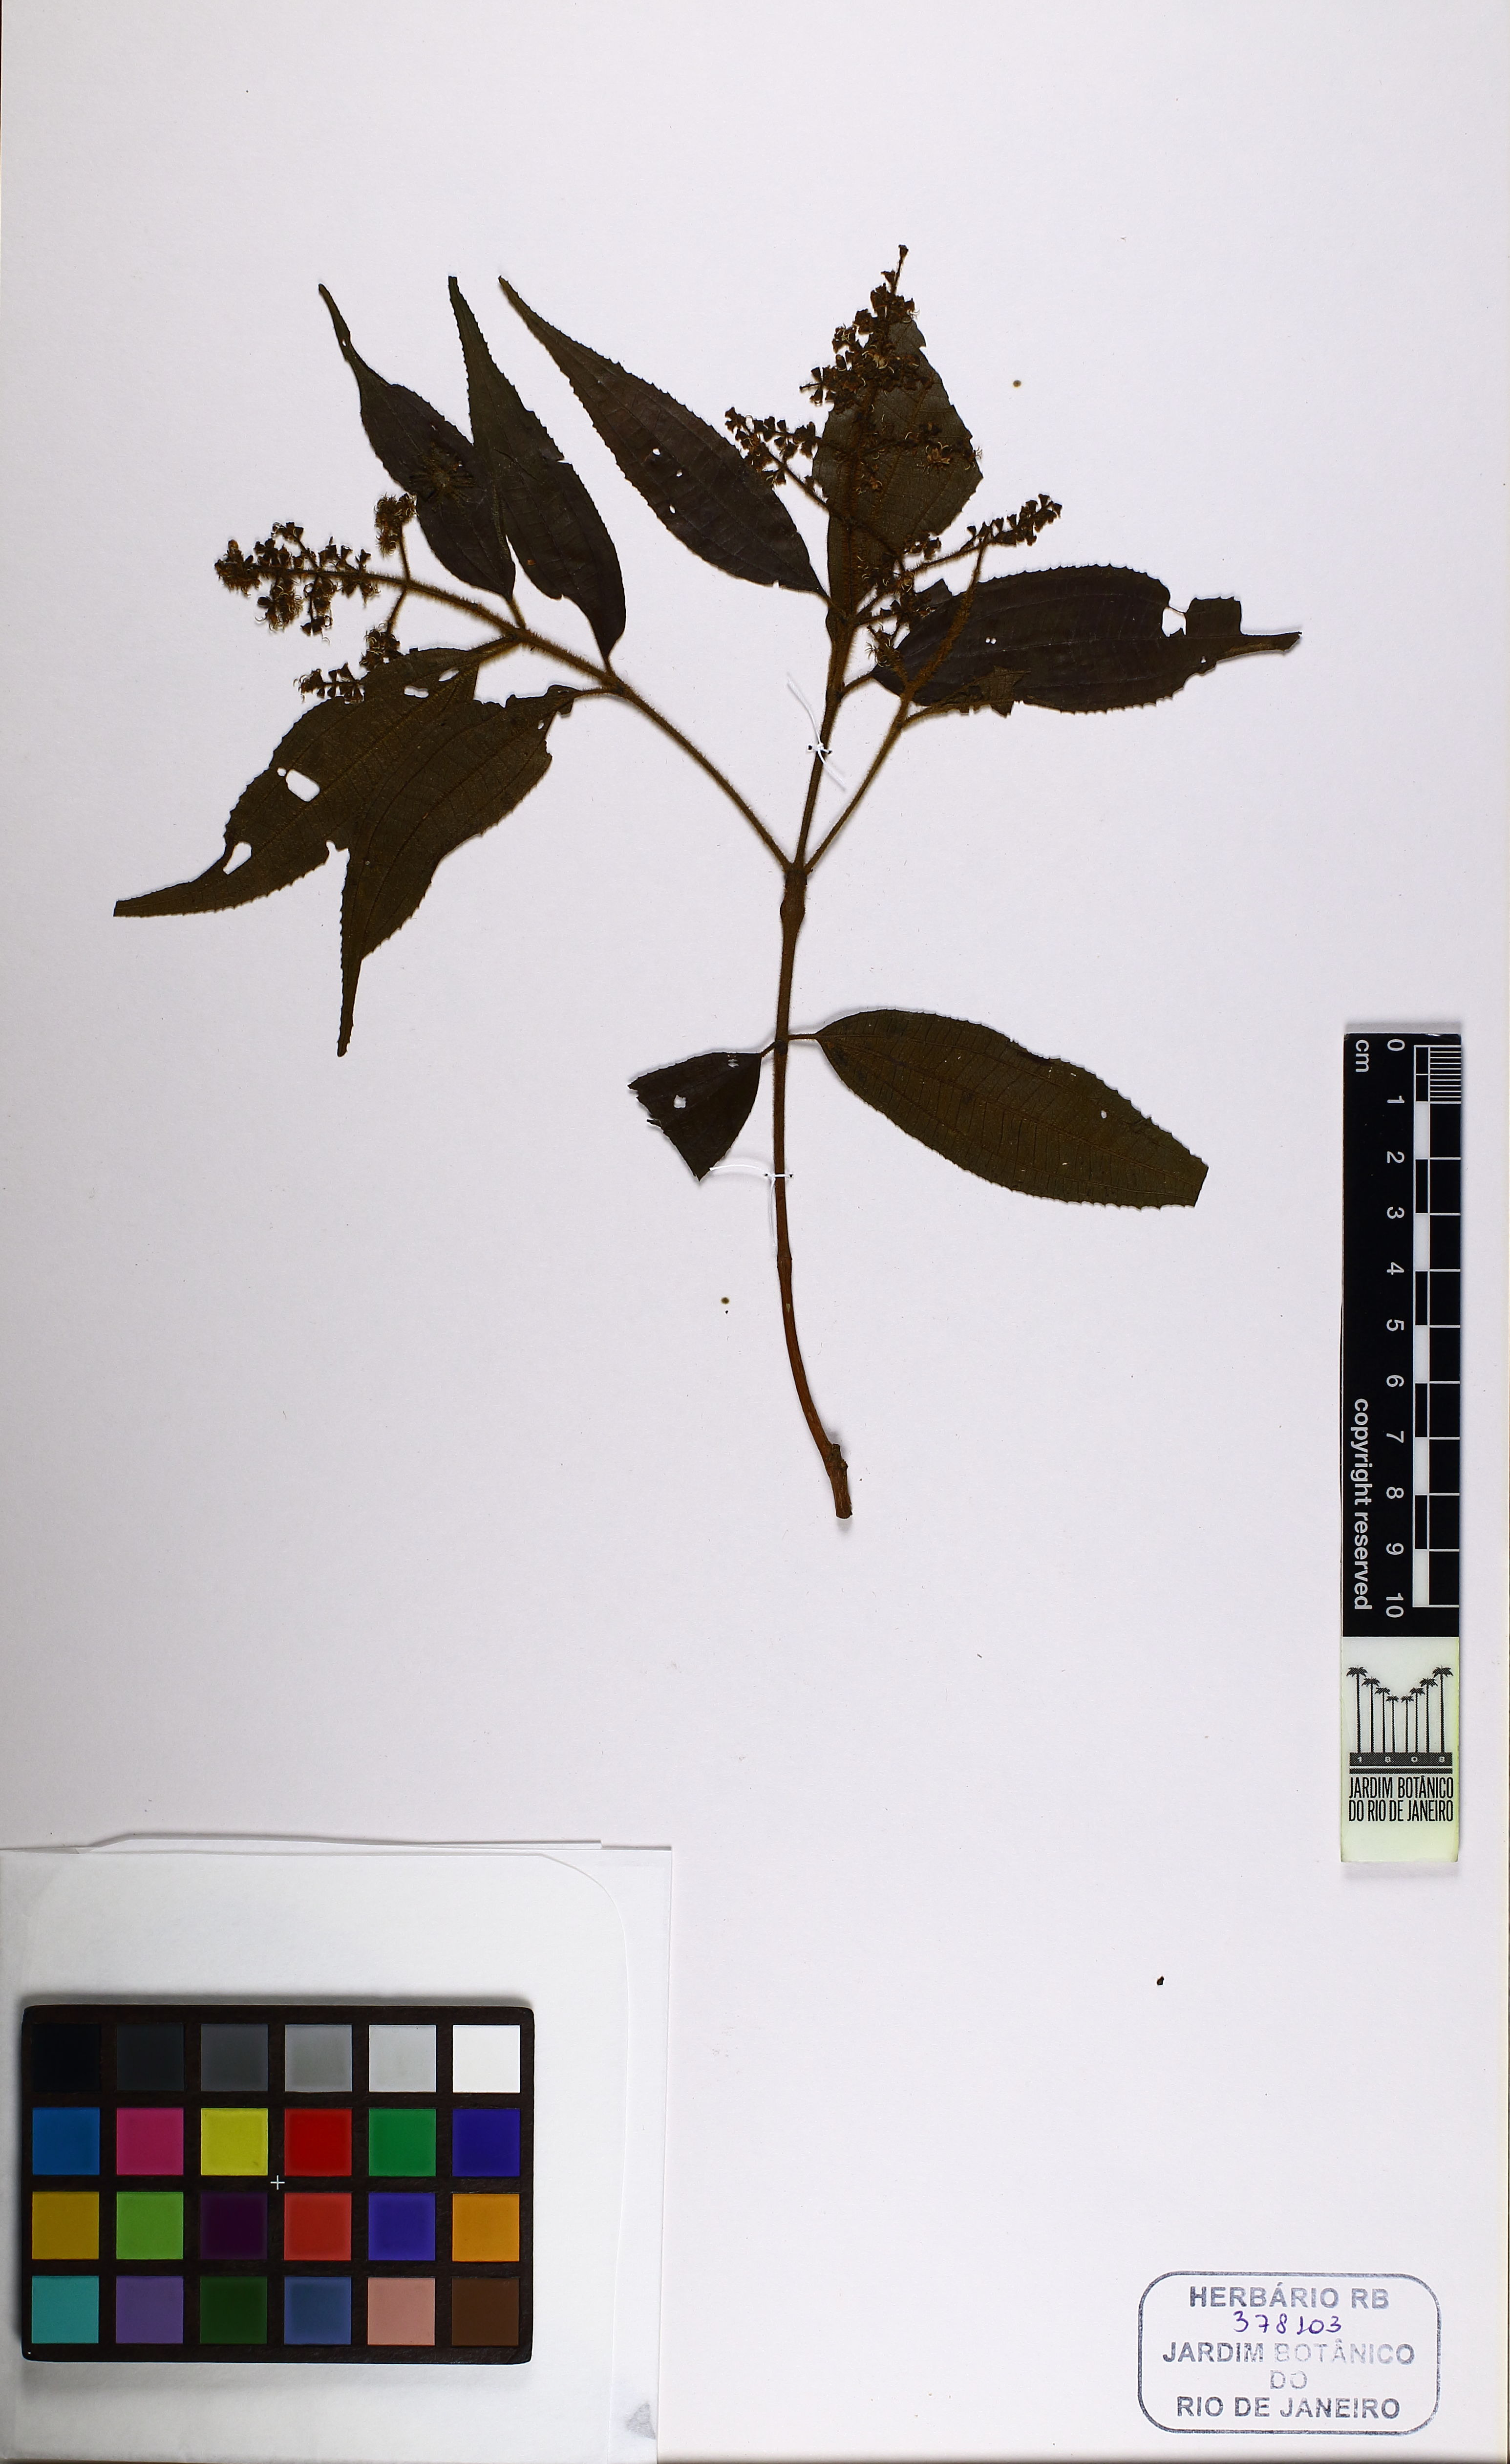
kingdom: Plantae
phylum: Tracheophyta
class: Magnoliopsida
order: Myrtales
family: Melastomataceae
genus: Miconia
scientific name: Miconia trianae
